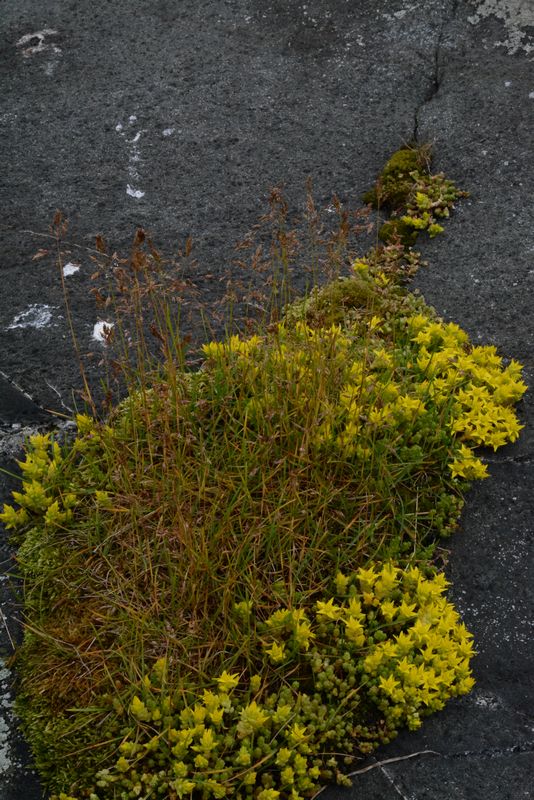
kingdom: Plantae
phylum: Tracheophyta
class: Magnoliopsida
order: Saxifragales
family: Crassulaceae
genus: Sedum
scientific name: Sedum acre
